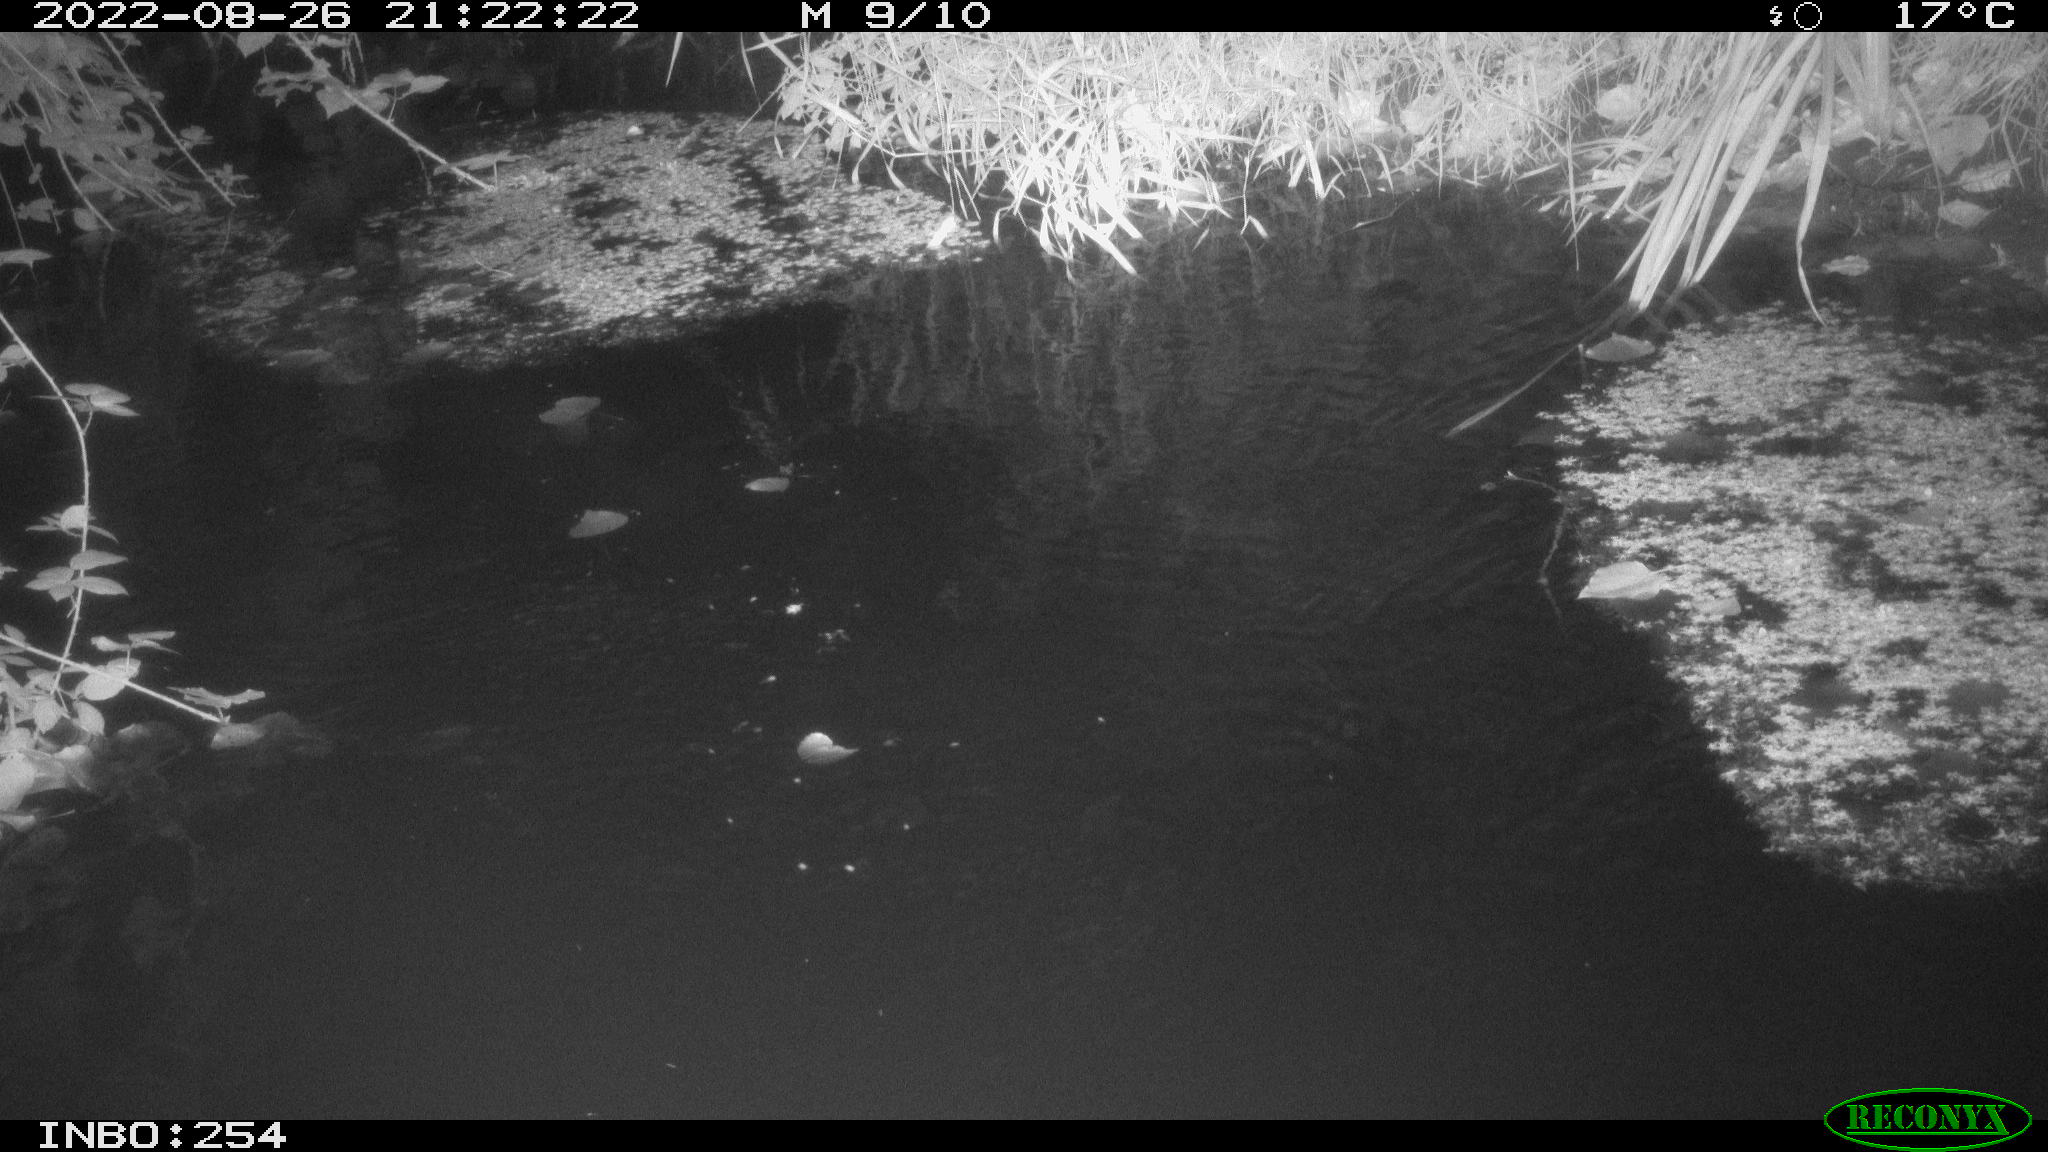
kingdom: Animalia
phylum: Chordata
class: Aves
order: Anseriformes
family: Anatidae
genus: Anas
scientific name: Anas platyrhynchos
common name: Mallard
